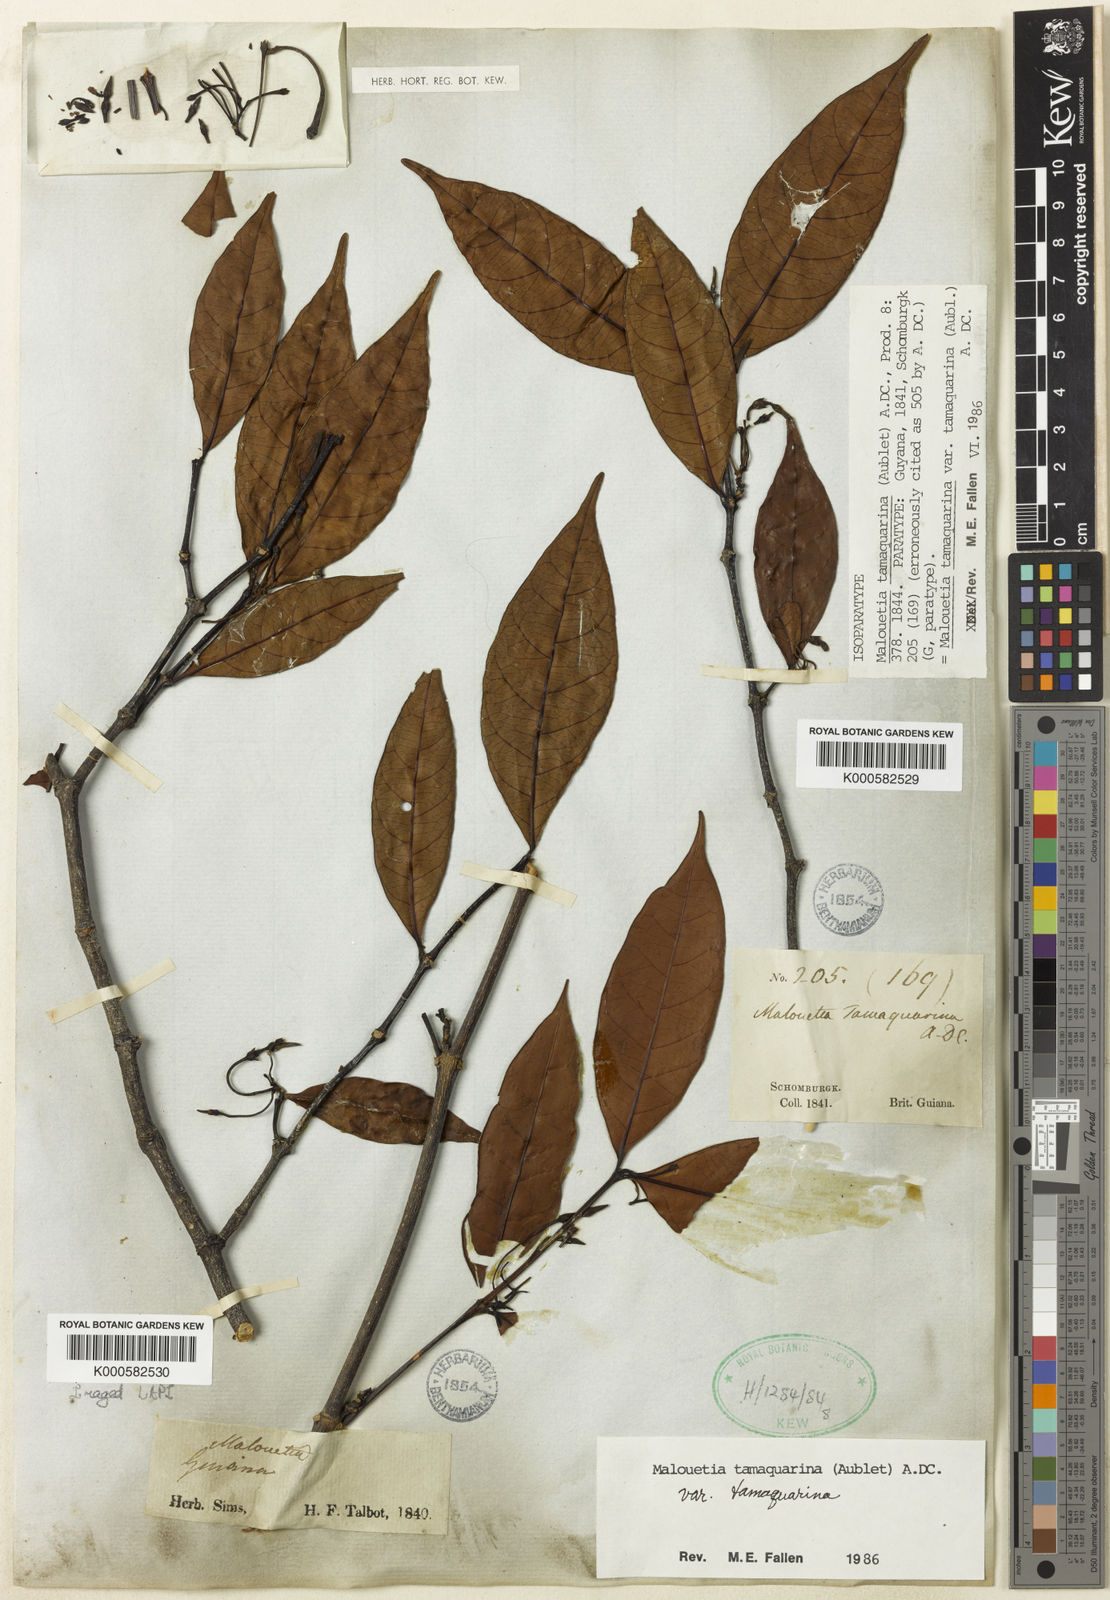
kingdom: Plantae
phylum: Tracheophyta
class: Magnoliopsida
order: Gentianales
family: Apocynaceae
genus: Malouetia
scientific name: Malouetia tamaquarina
